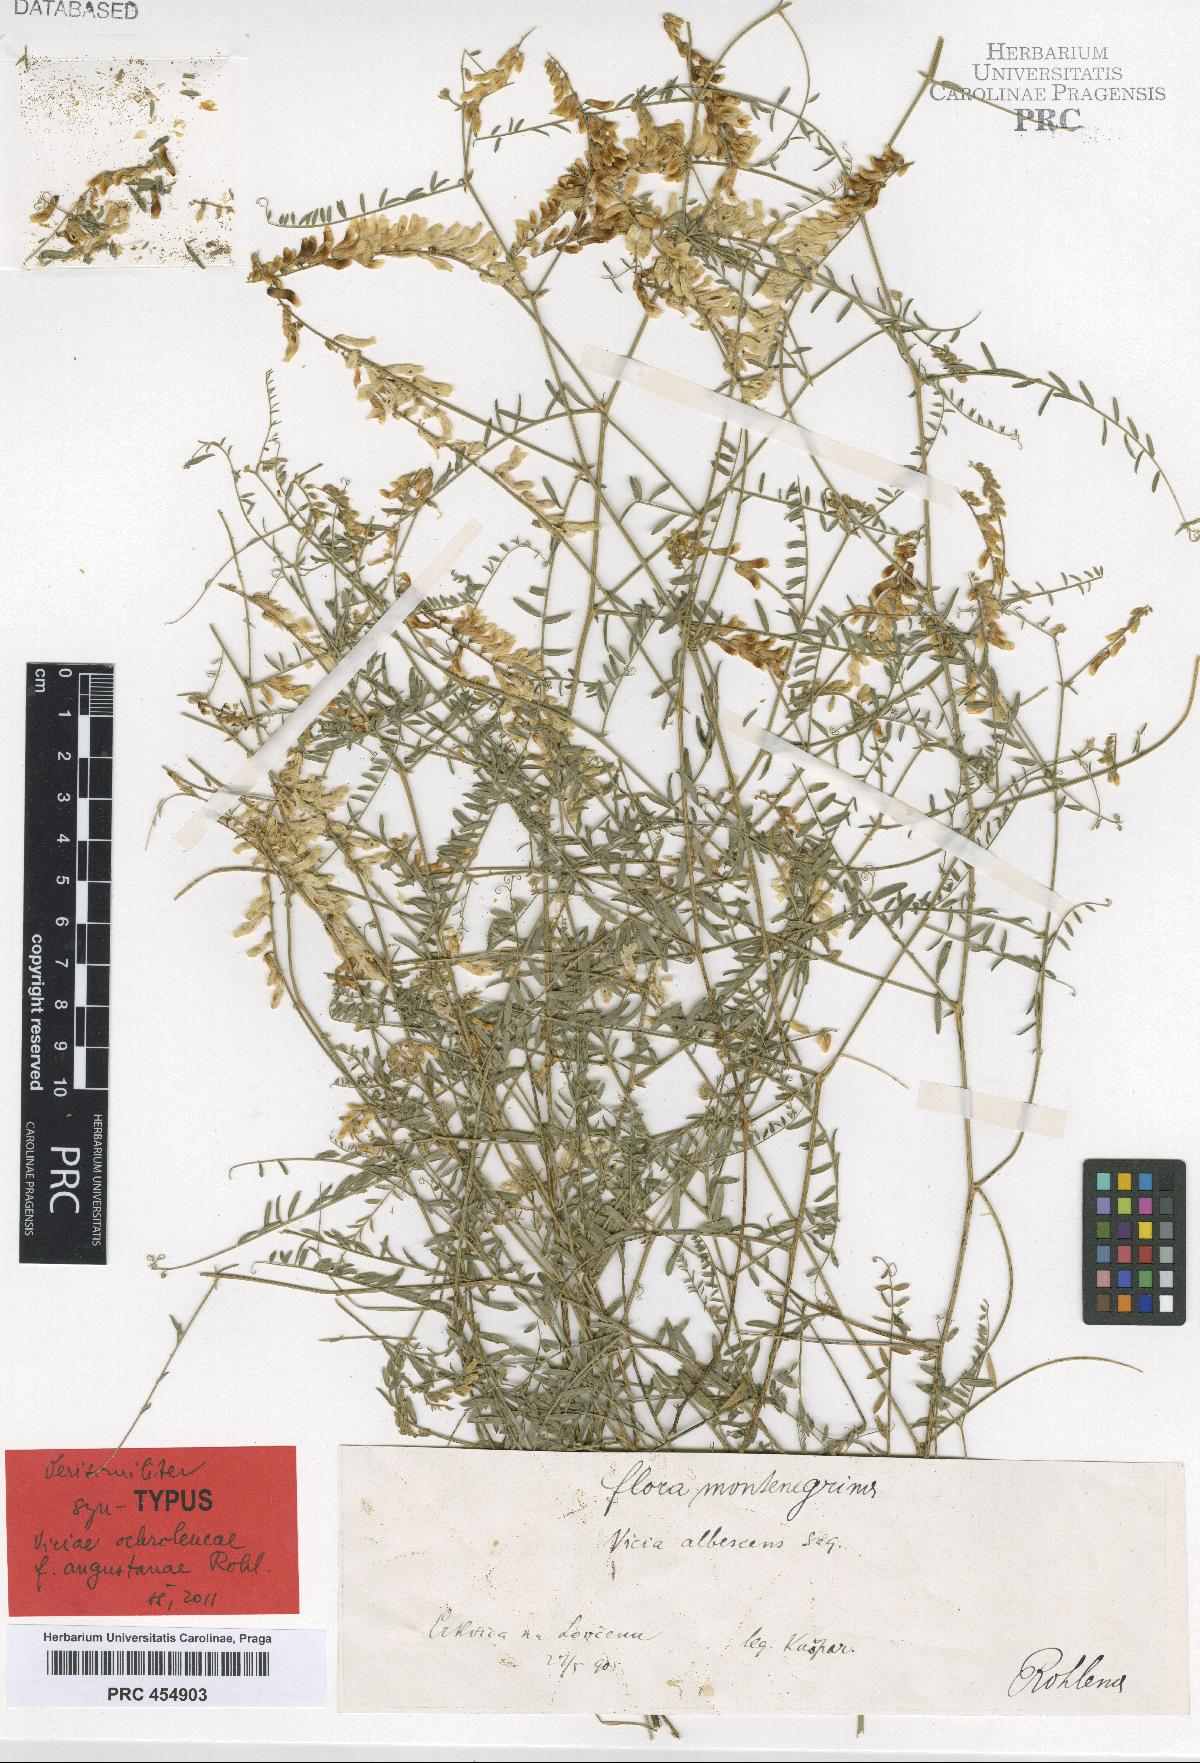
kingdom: Plantae
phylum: Tracheophyta
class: Magnoliopsida
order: Fabales
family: Fabaceae
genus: Vicia
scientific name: Vicia ochroleuca
